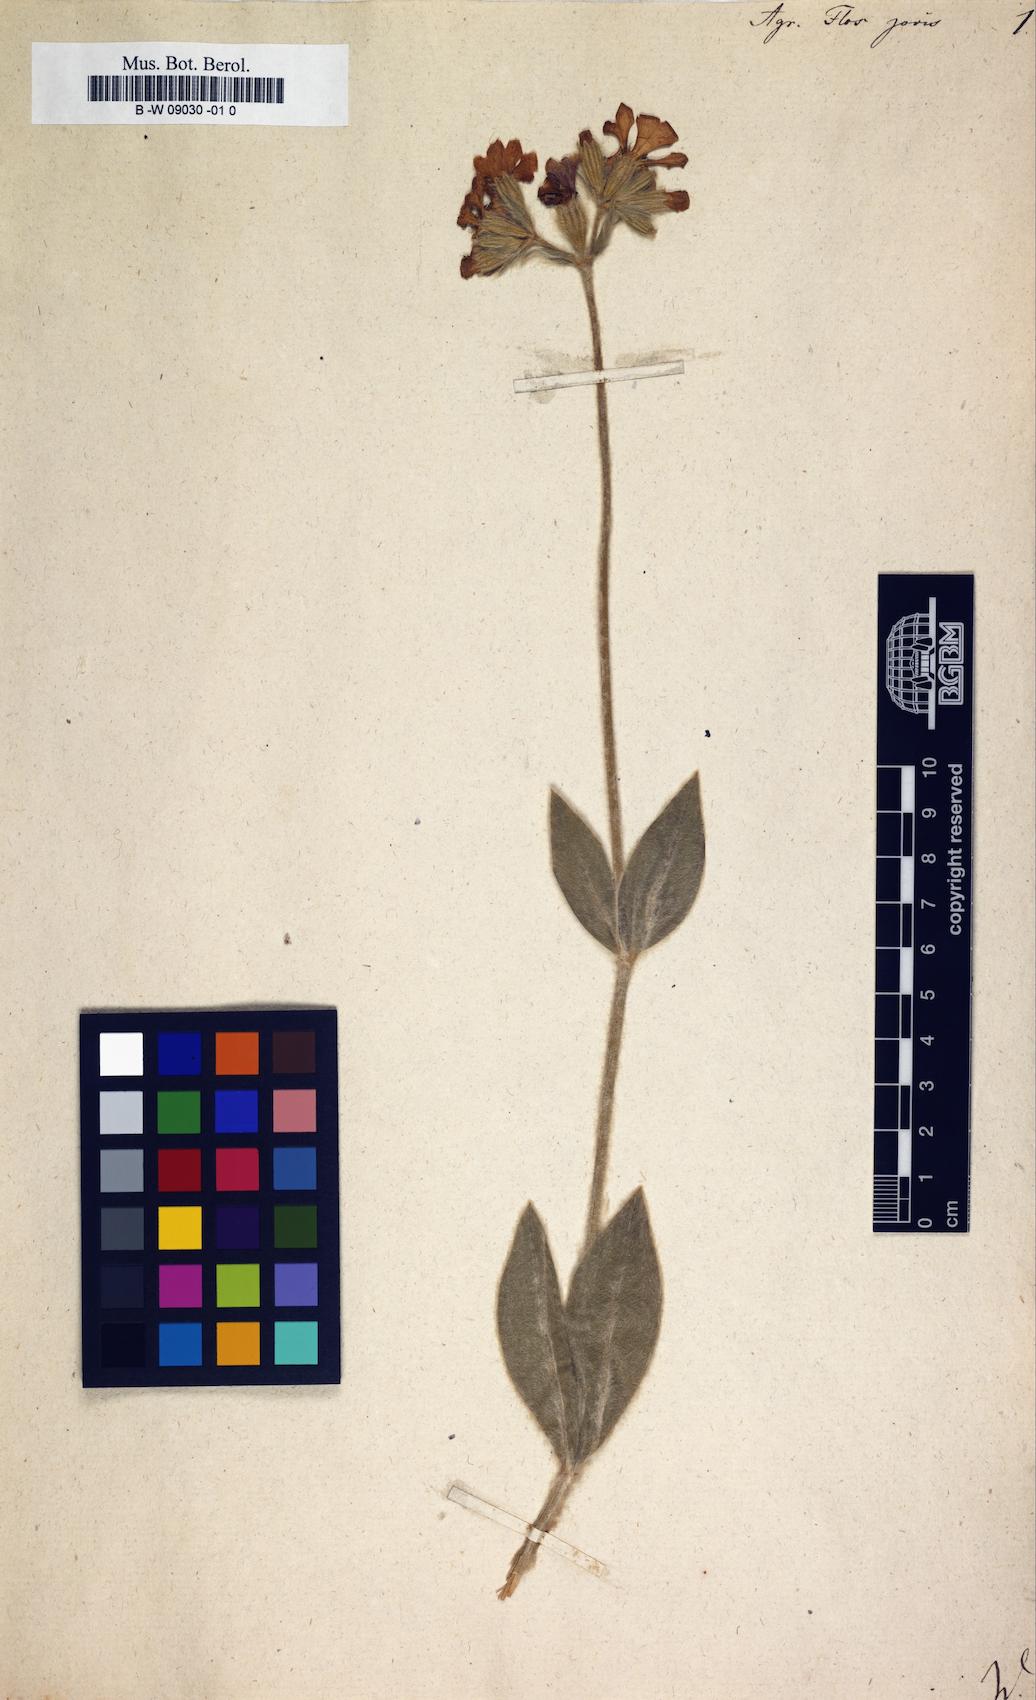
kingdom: Plantae
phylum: Tracheophyta
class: Magnoliopsida
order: Caryophyllales
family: Caryophyllaceae
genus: Silene
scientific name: Silene flos-jovis
